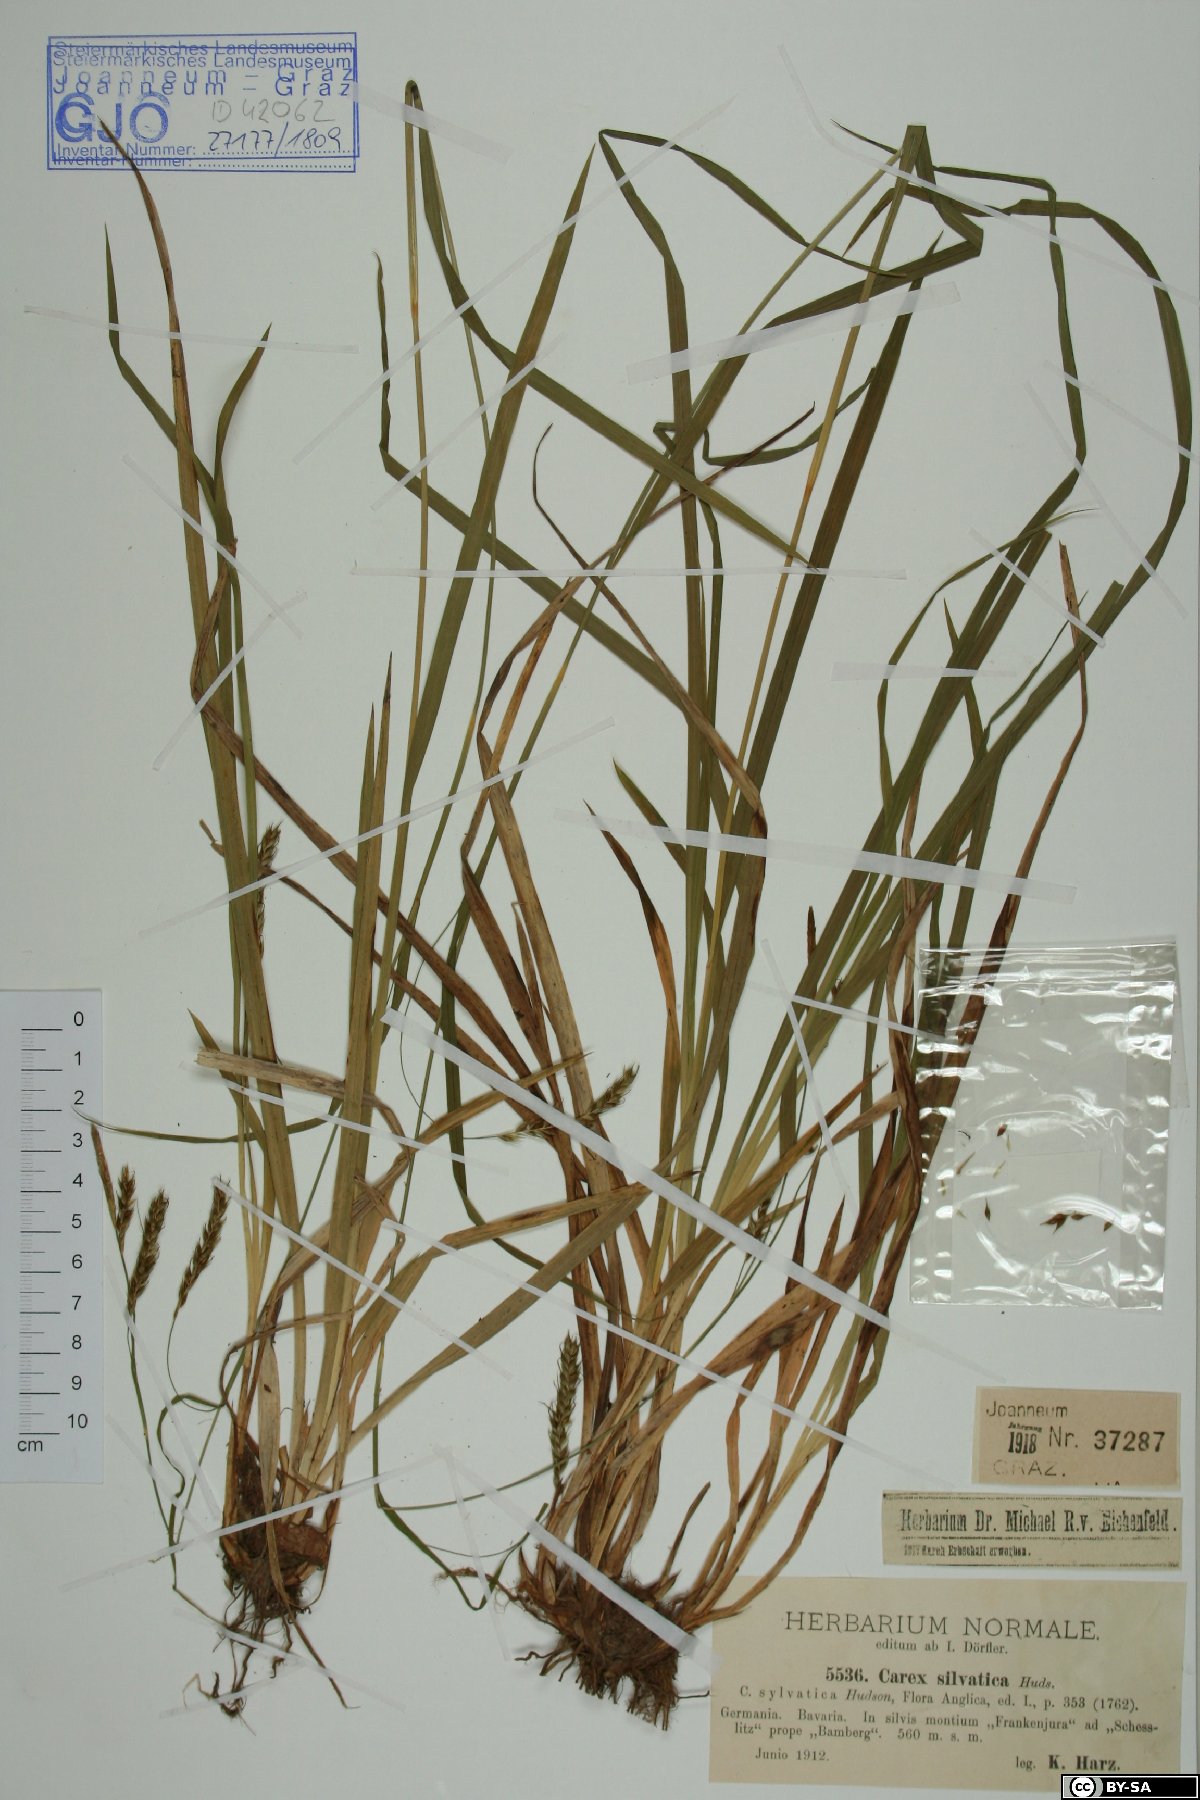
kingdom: Plantae
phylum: Tracheophyta
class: Liliopsida
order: Poales
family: Cyperaceae
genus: Carex
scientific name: Carex sylvatica
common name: Wood-sedge
